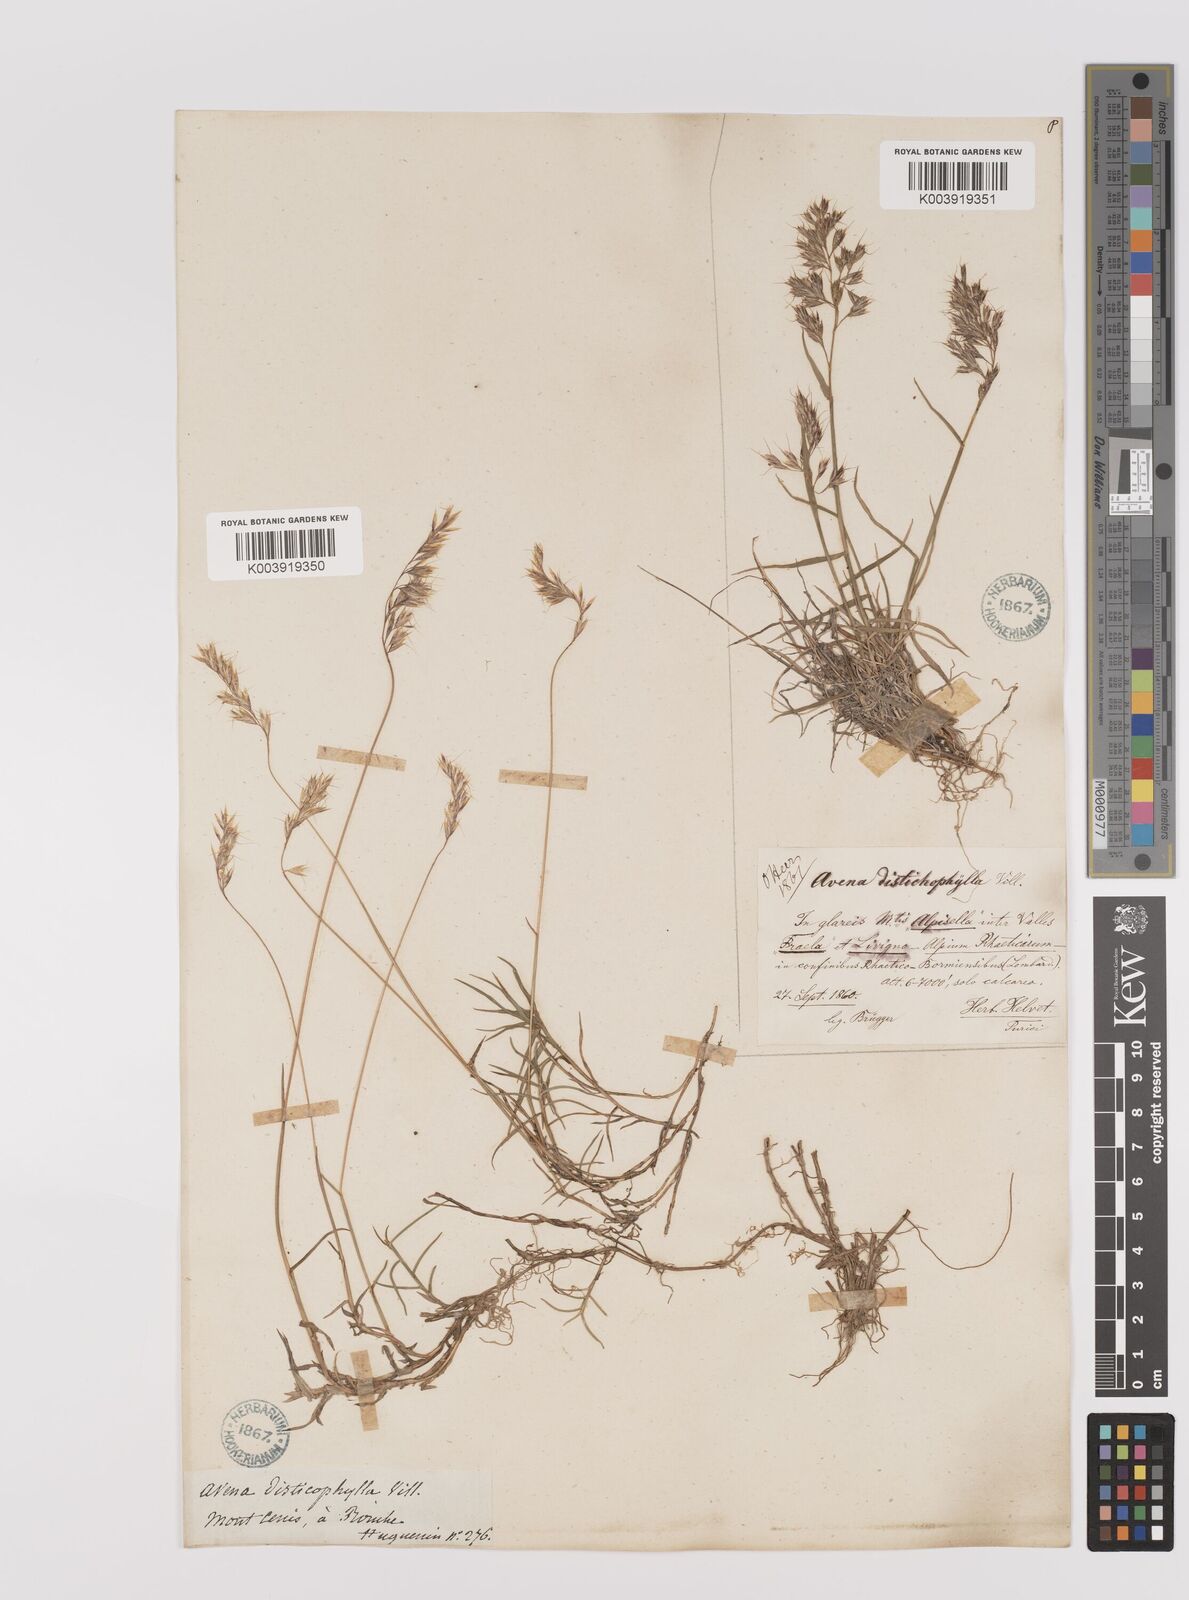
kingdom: Plantae
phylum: Tracheophyta
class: Liliopsida
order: Poales
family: Poaceae
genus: Acrospelion
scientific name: Acrospelion distichophyllum
